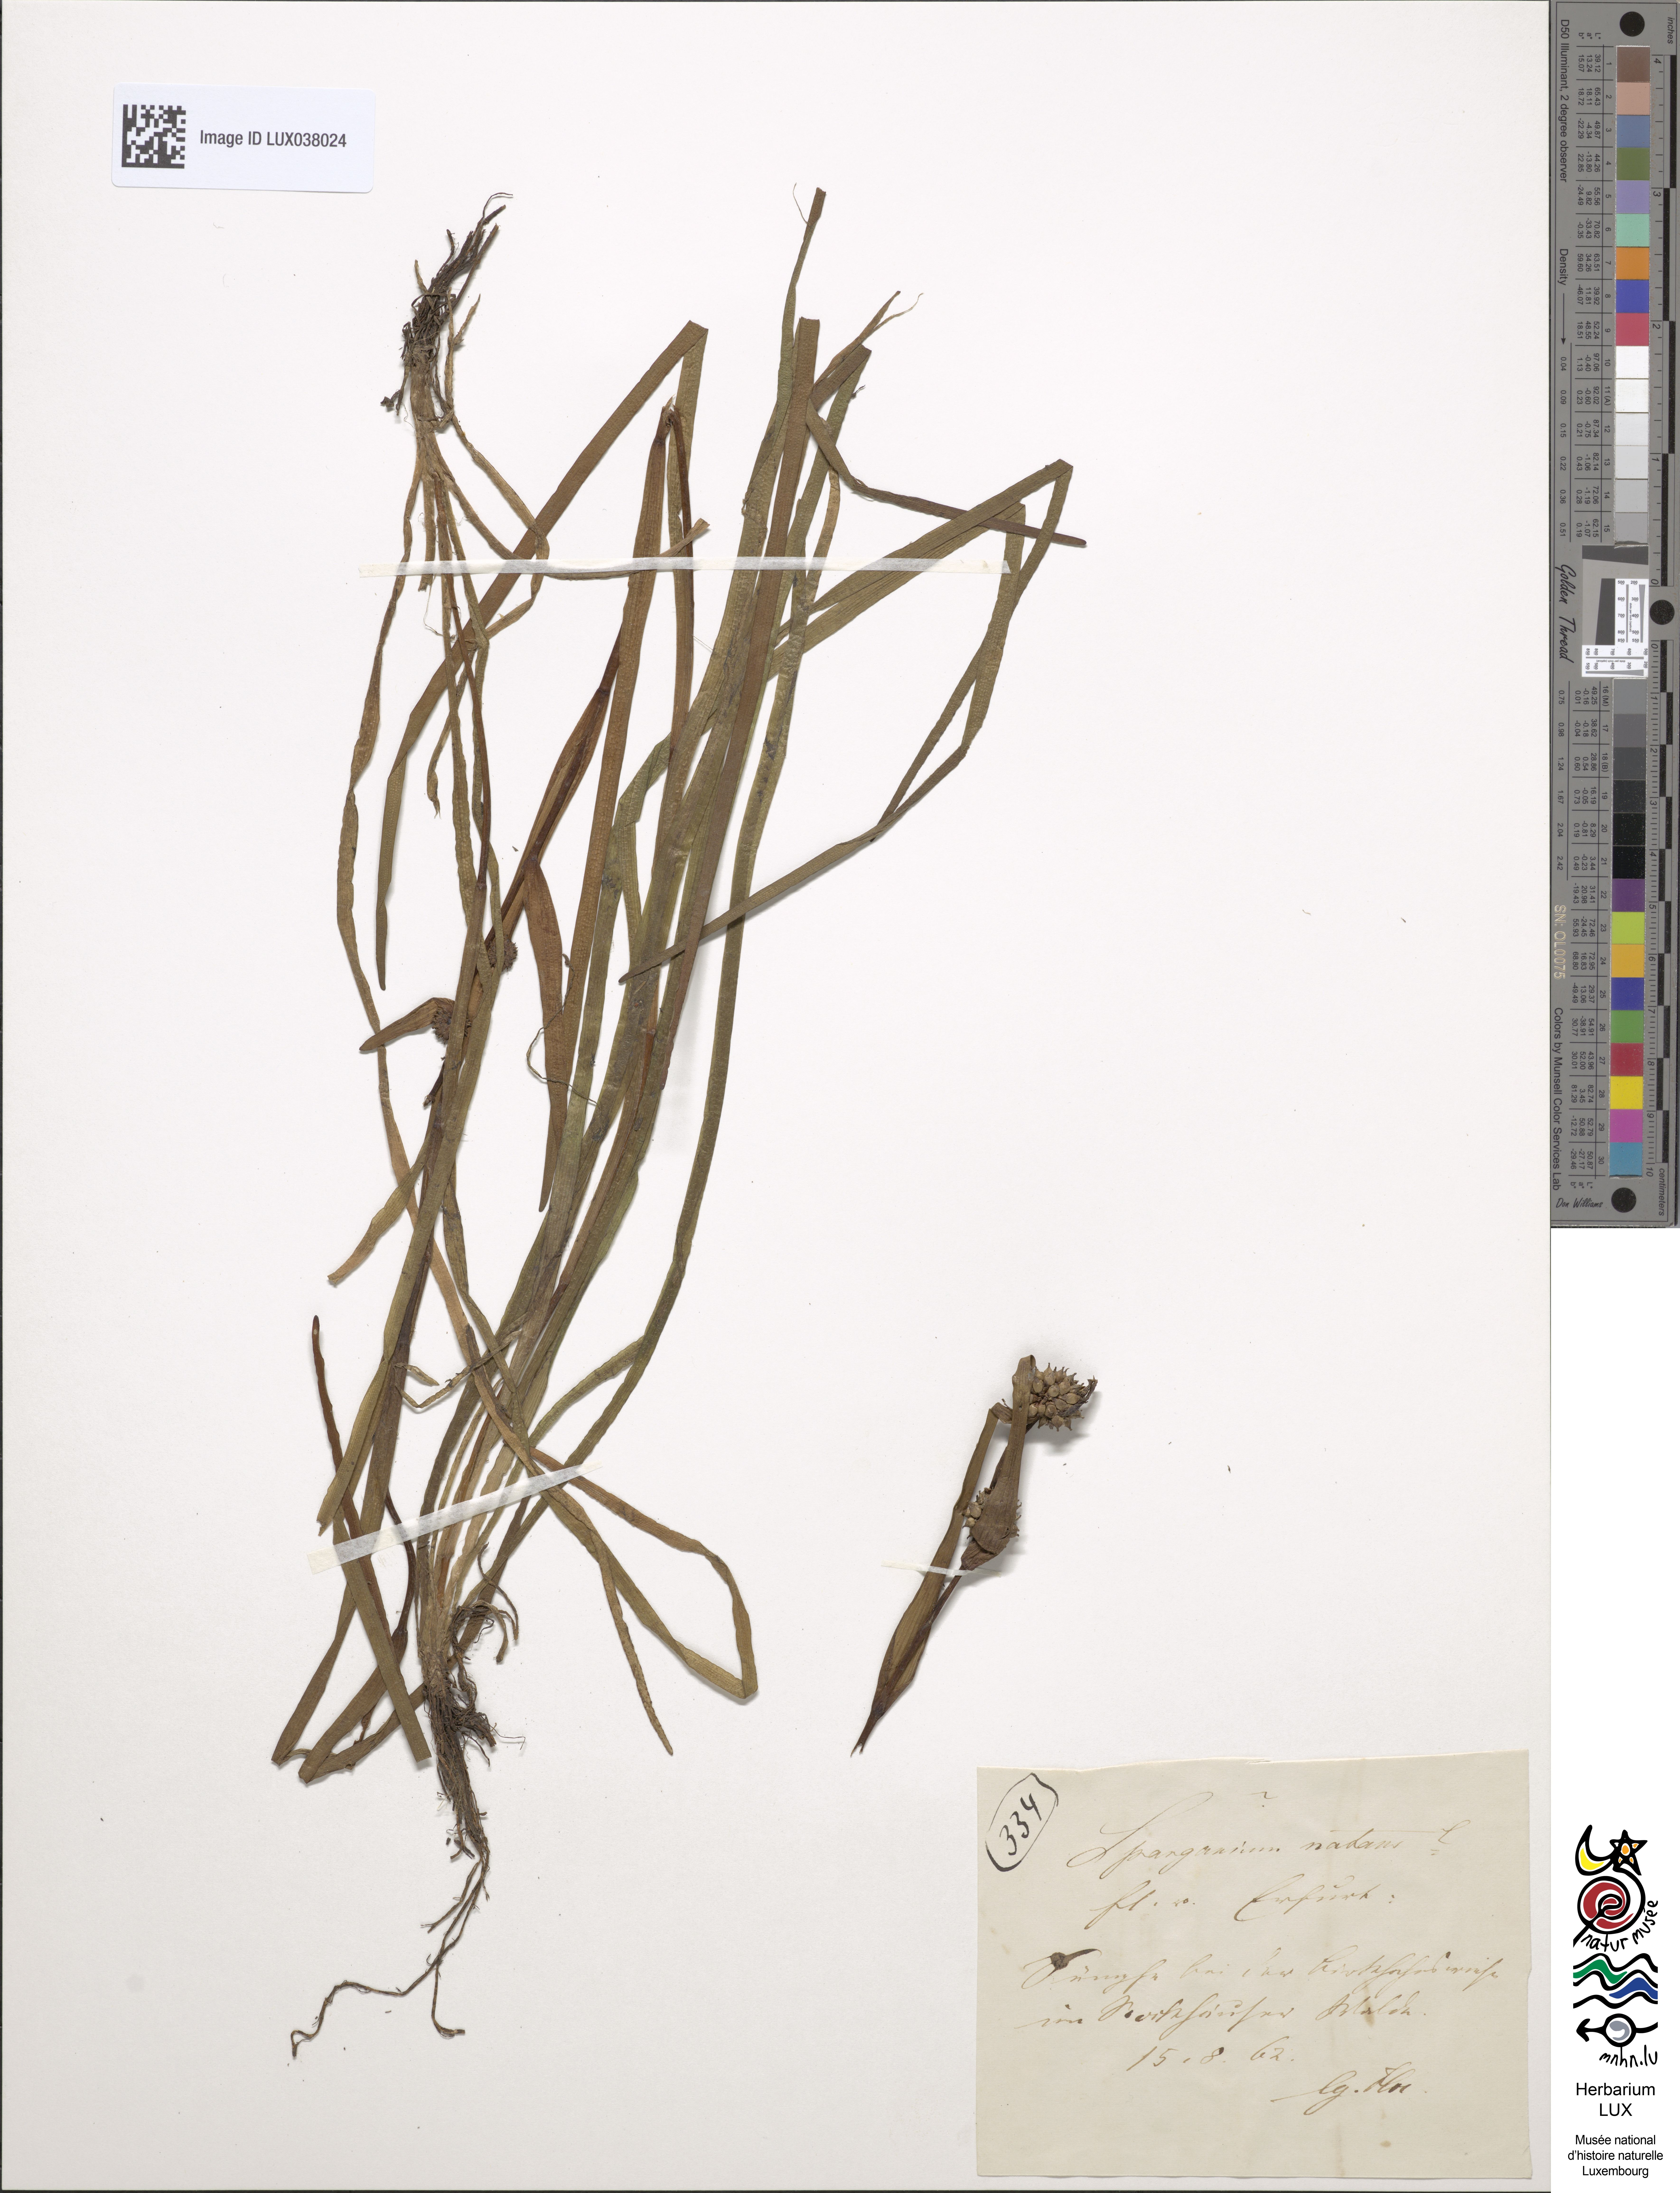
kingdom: Plantae
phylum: Tracheophyta
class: Liliopsida
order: Poales
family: Typhaceae
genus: Sparganium
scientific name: Sparganium natans
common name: Least bur-reed
